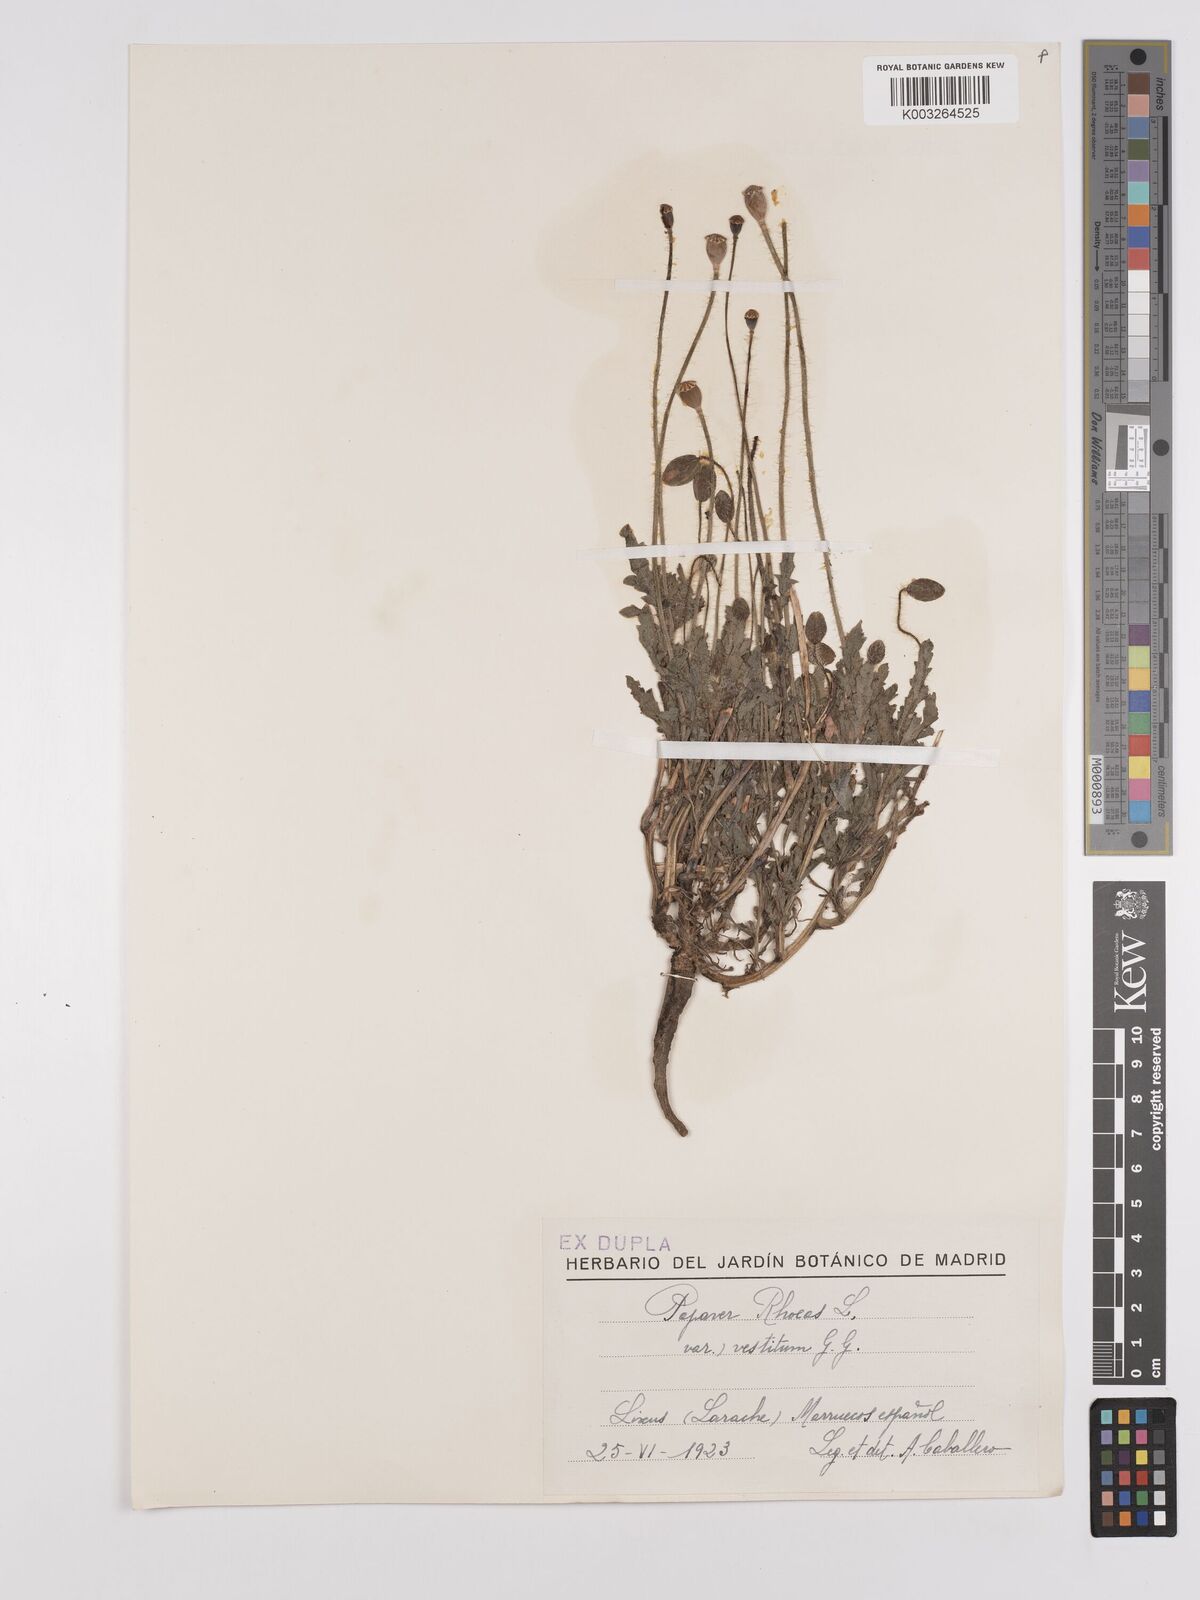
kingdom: Plantae
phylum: Tracheophyta
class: Magnoliopsida
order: Ranunculales
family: Papaveraceae
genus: Papaver
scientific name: Papaver rhoeas
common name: Corn poppy
